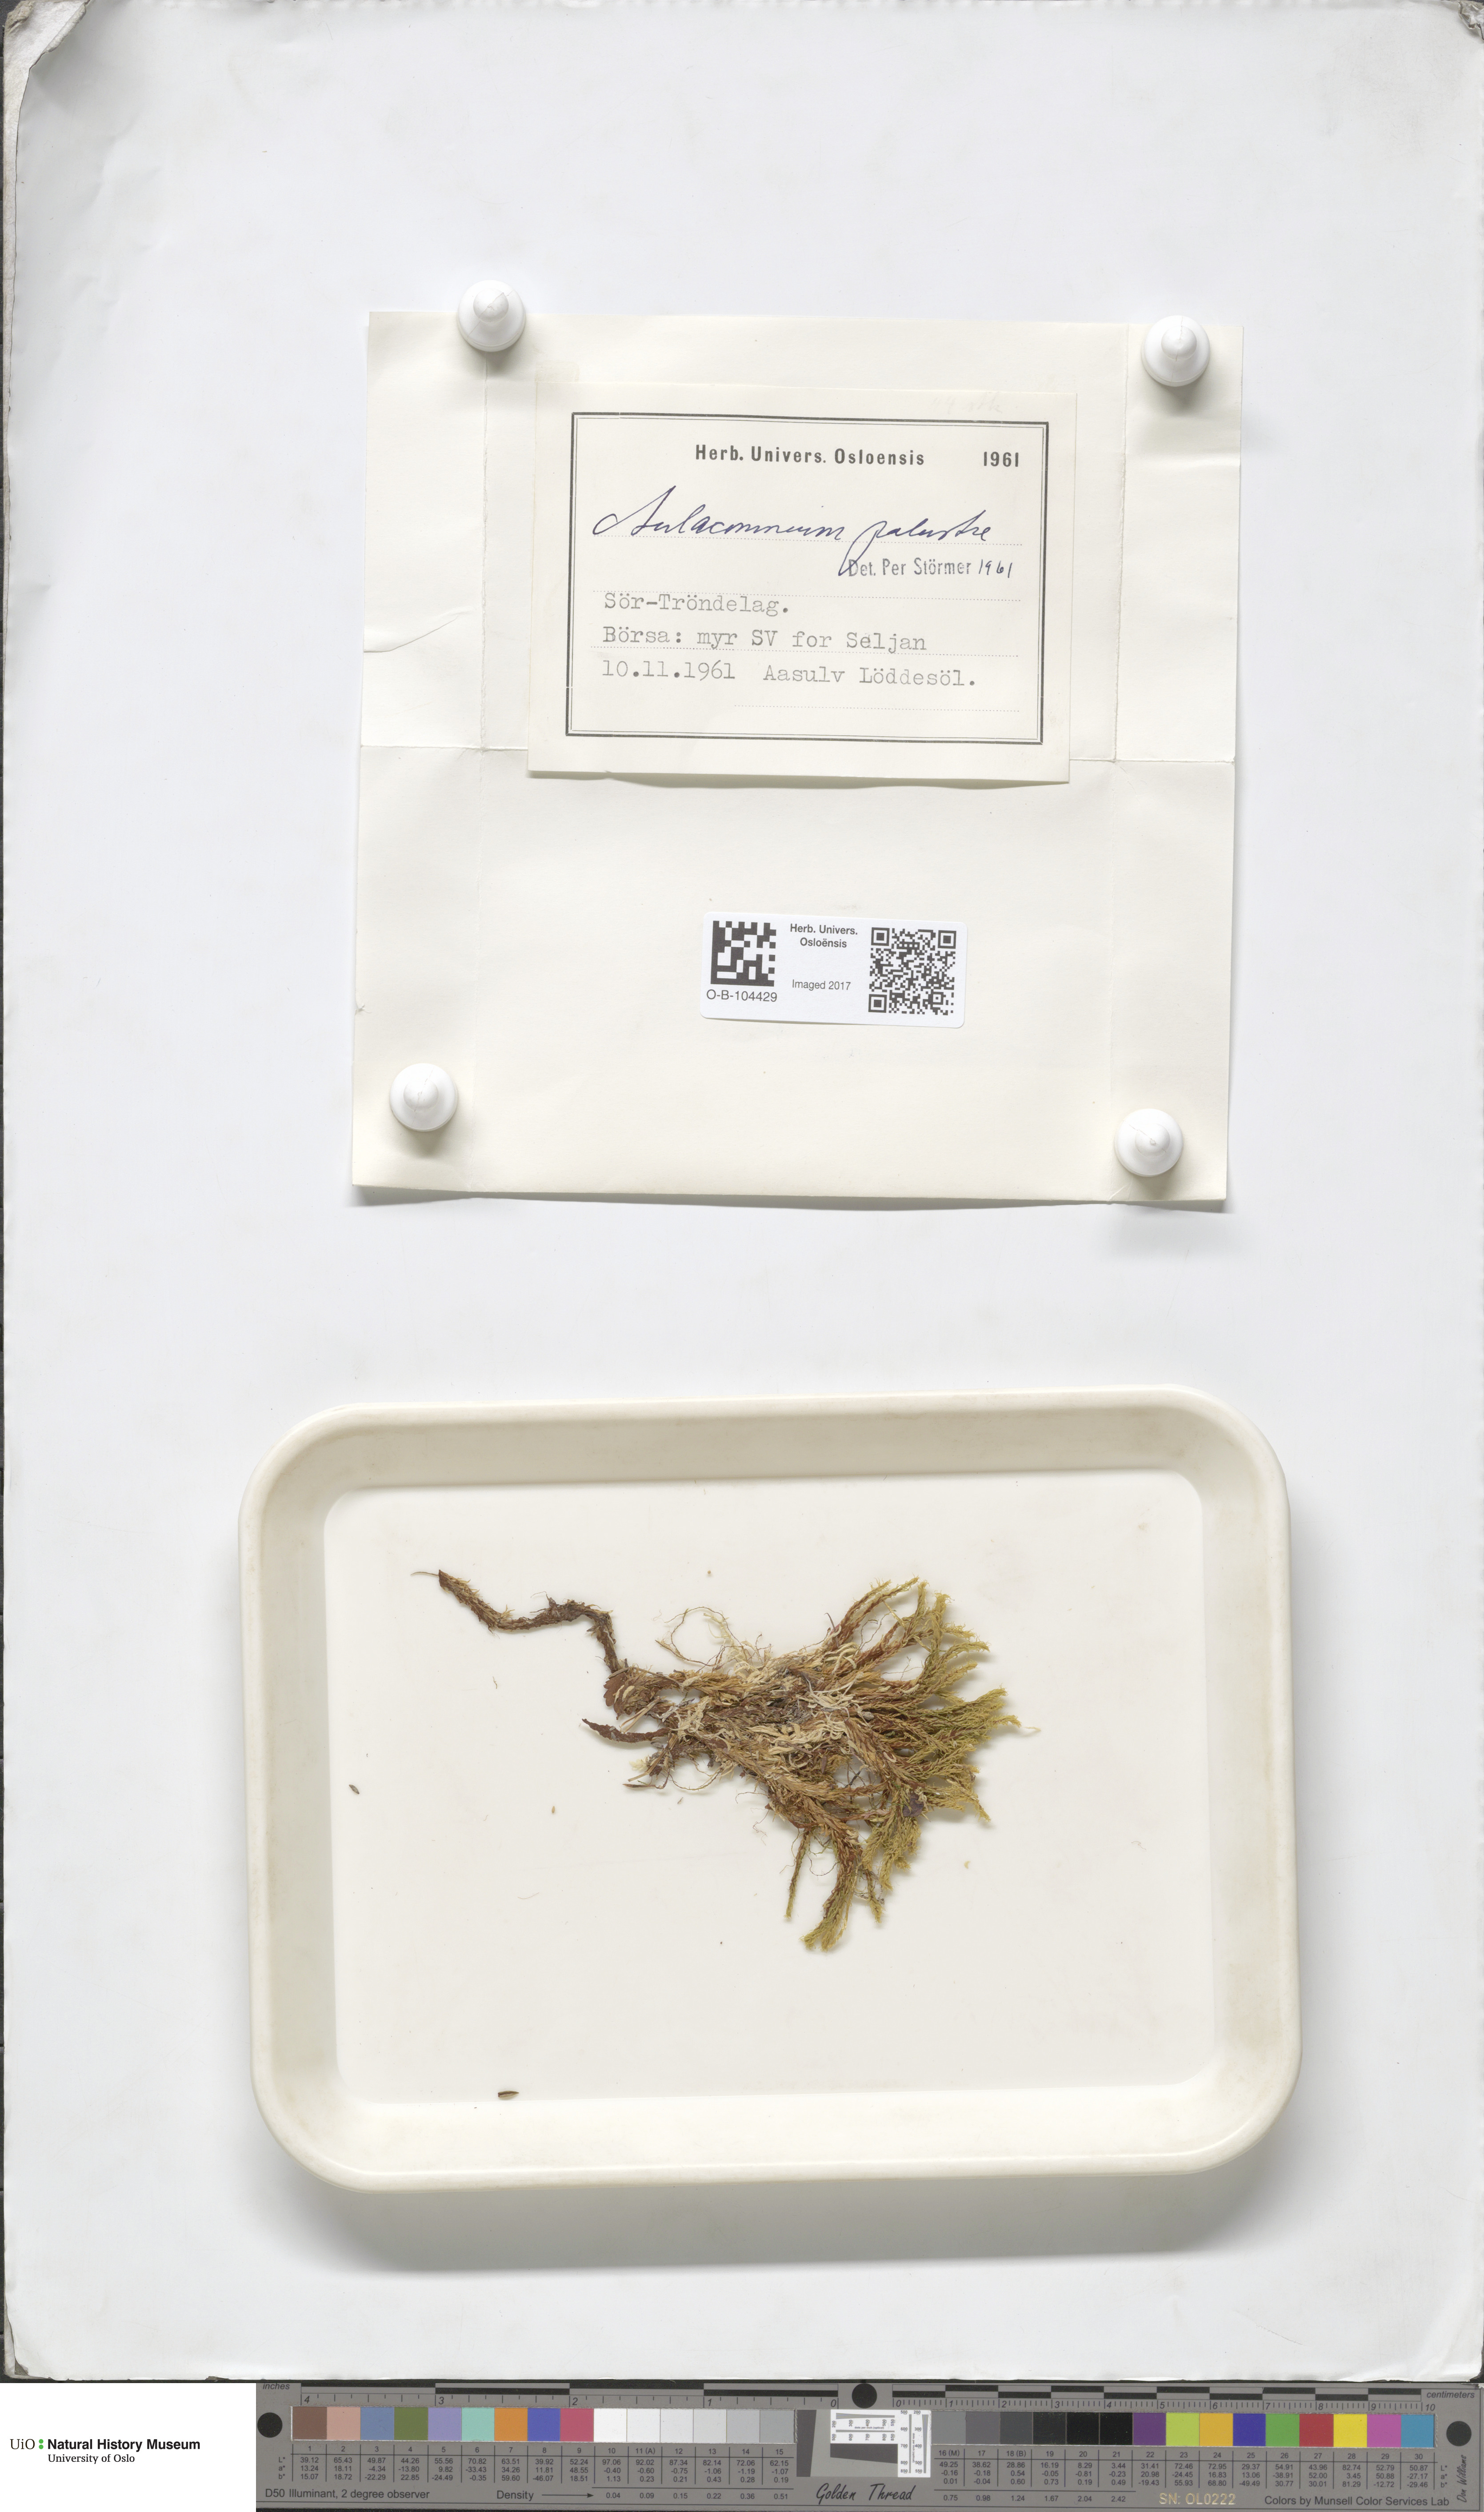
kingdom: Plantae
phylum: Bryophyta
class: Bryopsida
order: Aulacomniales
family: Aulacomniaceae
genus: Aulacomnium
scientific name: Aulacomnium palustre
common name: Bog groove-moss
